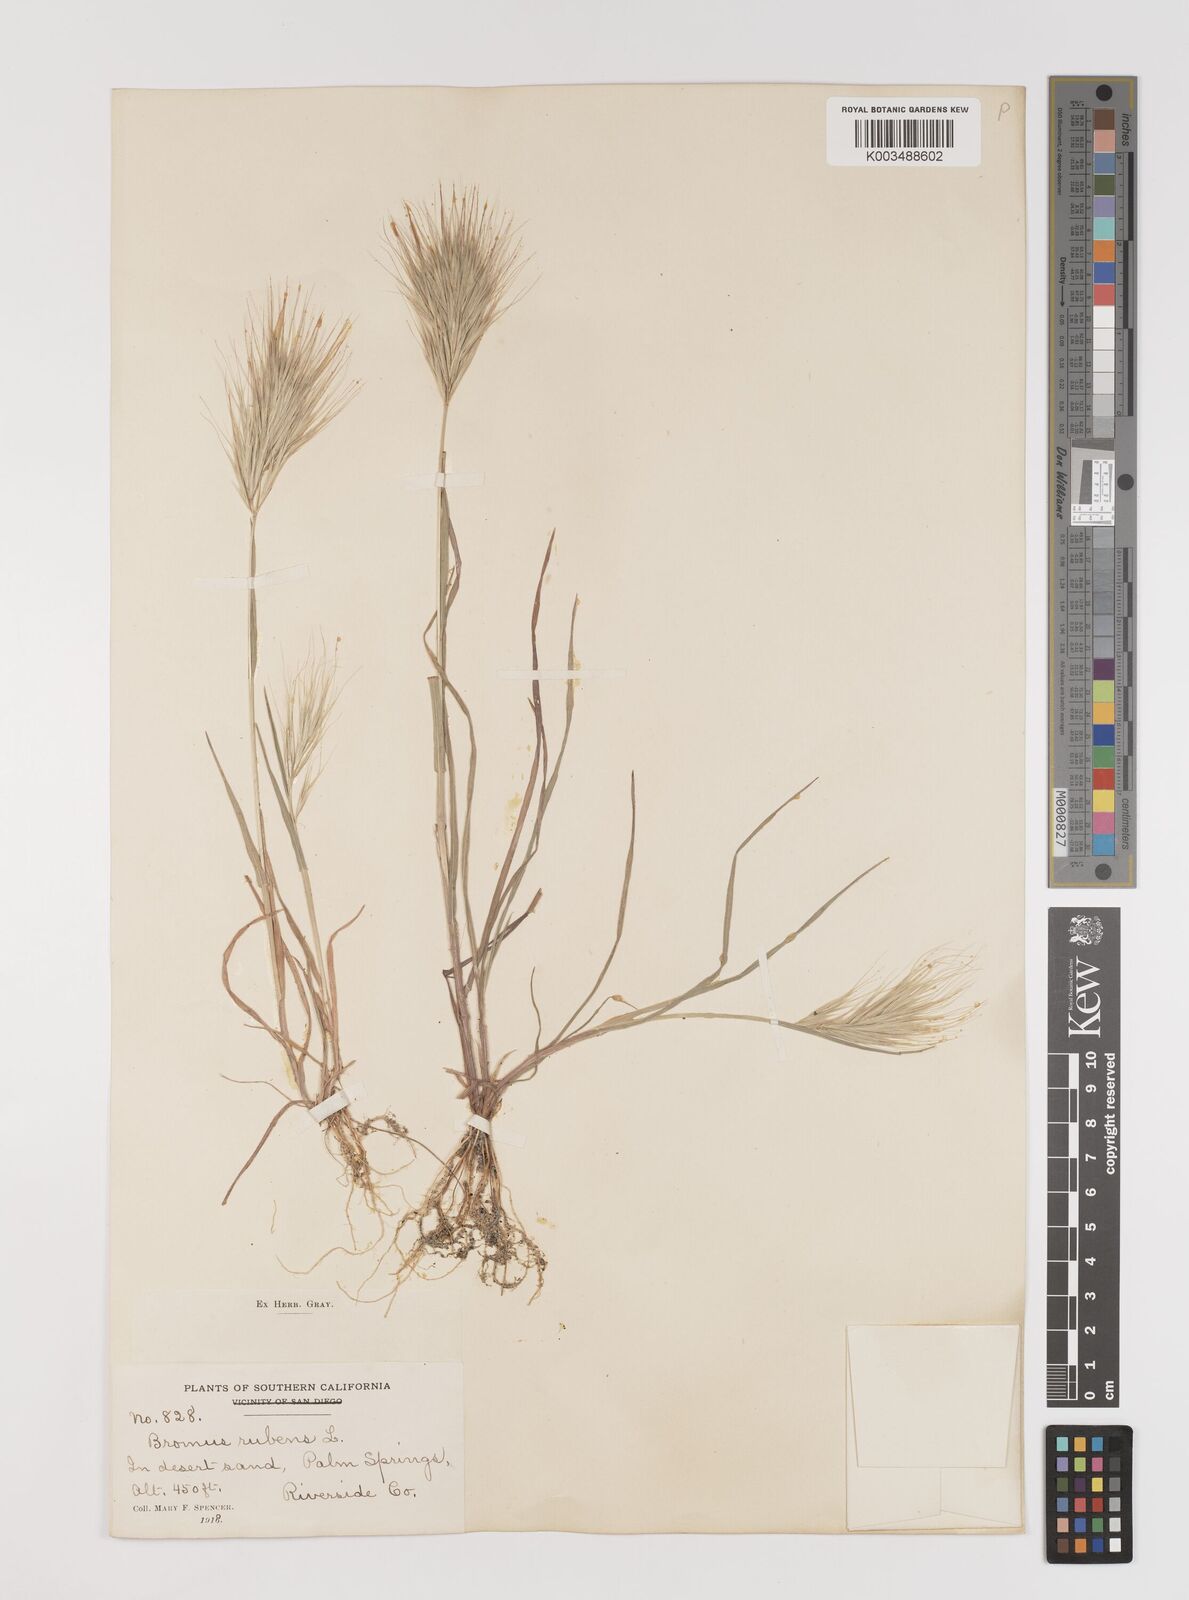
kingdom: Plantae
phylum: Tracheophyta
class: Liliopsida
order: Poales
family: Poaceae
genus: Bromus
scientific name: Bromus rubens
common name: Red brome
